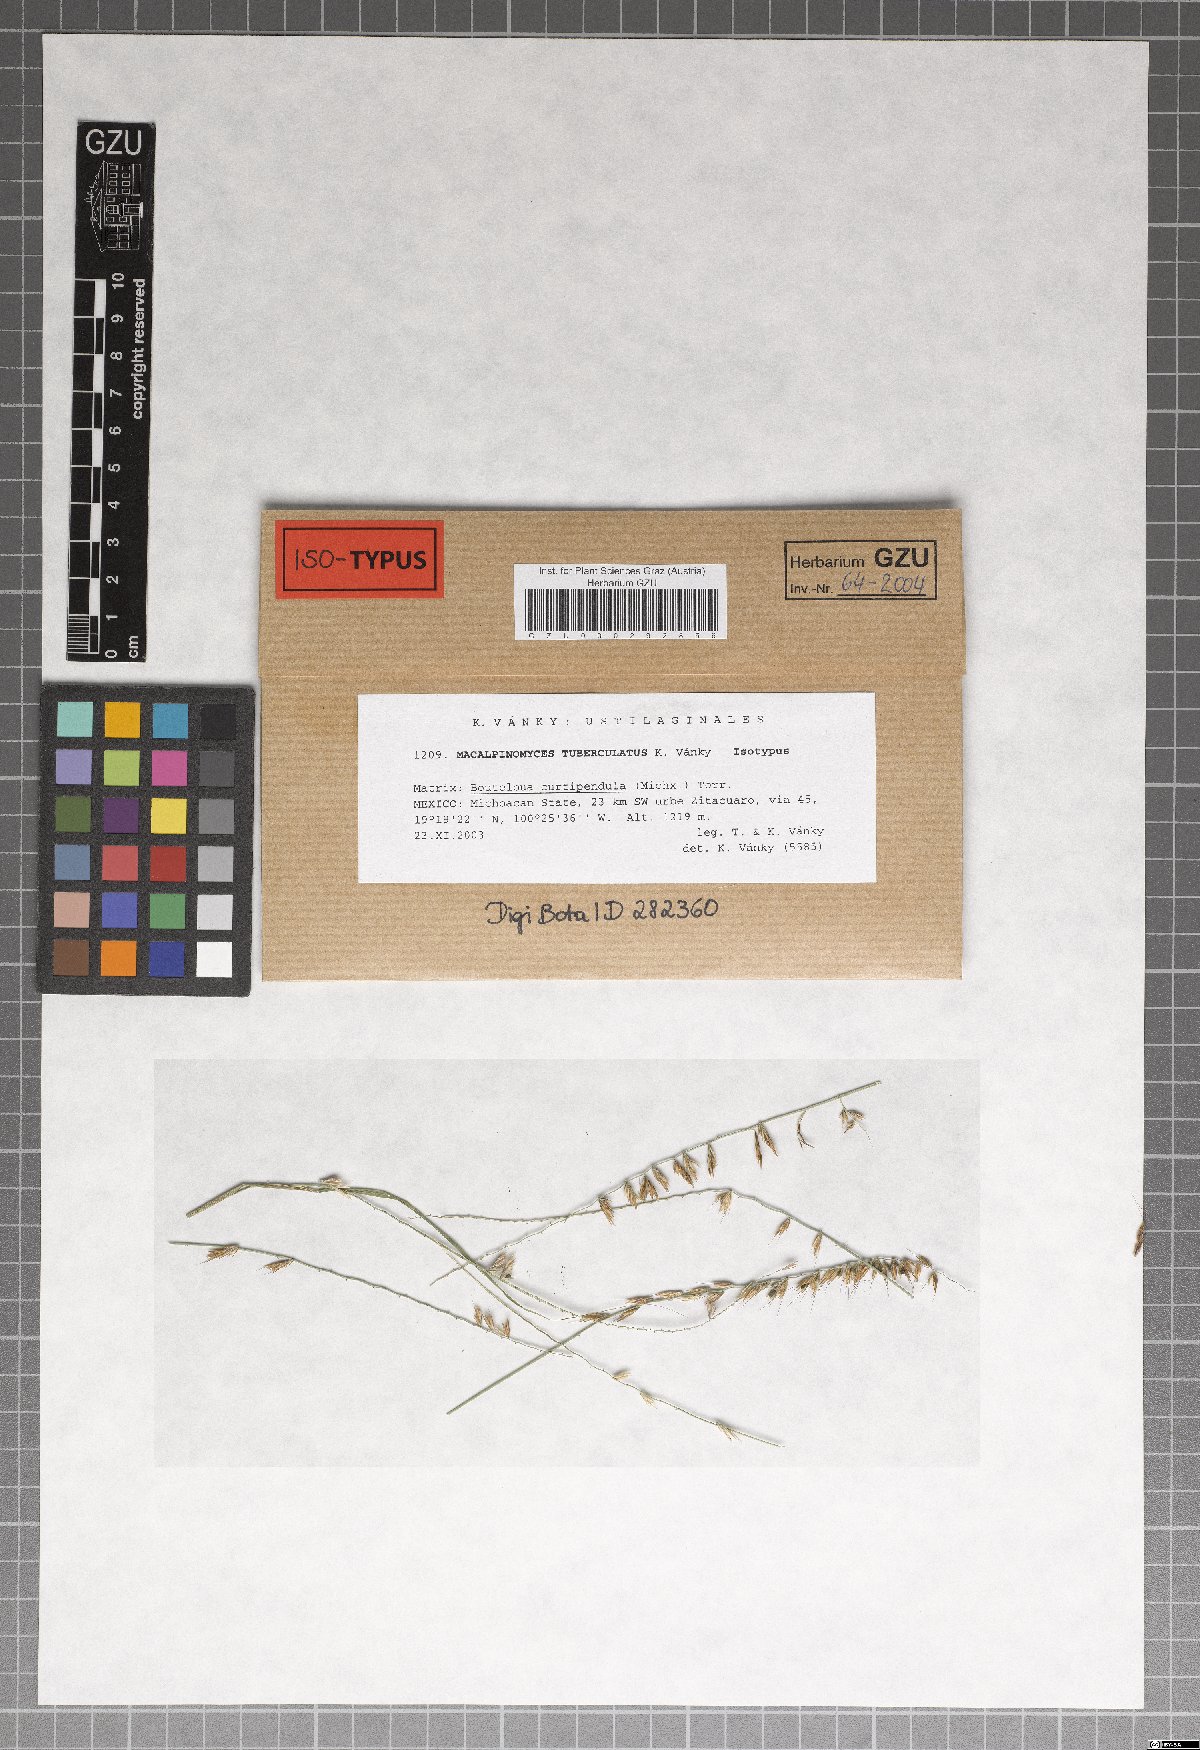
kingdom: Fungi
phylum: Basidiomycota
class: Ustilaginomycetes
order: Ustilaginales
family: Ustilaginaceae
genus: Macalpinomyces
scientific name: Macalpinomyces tuberculatus
